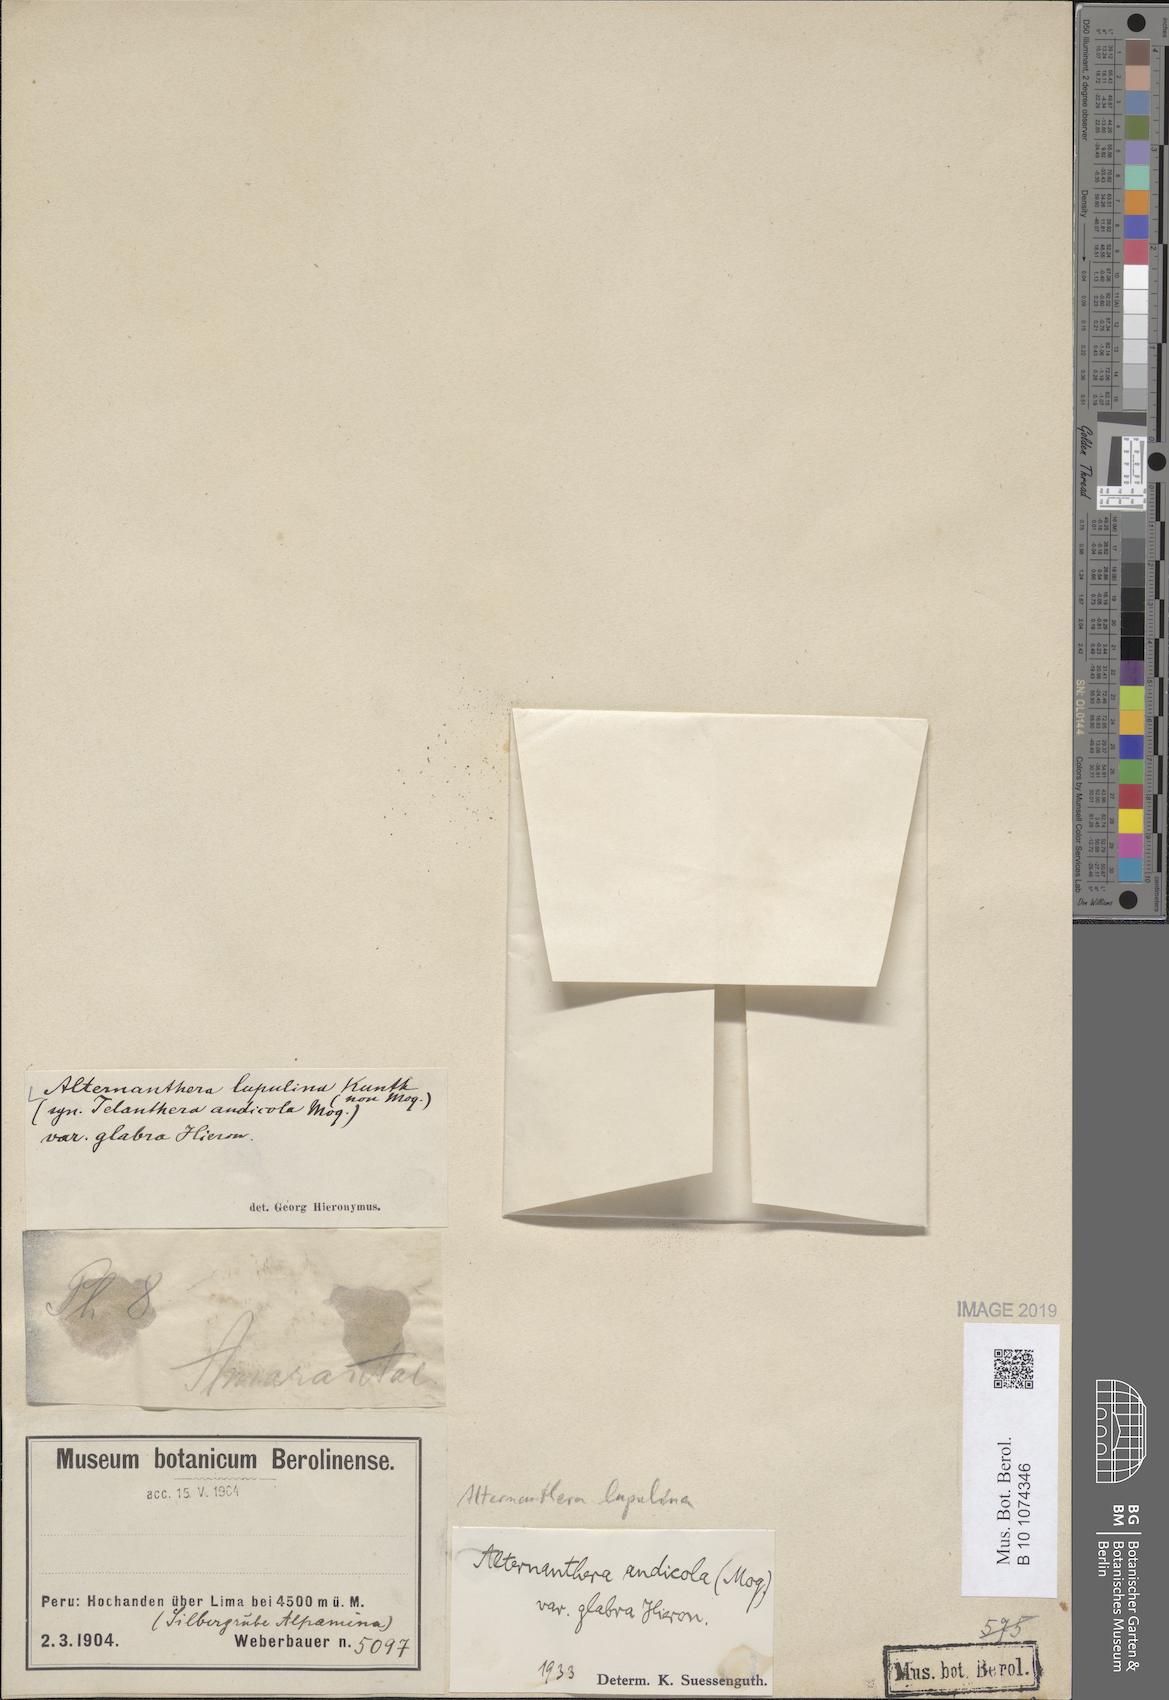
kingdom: Plantae
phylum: Tracheophyta
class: Magnoliopsida
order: Caryophyllales
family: Amaranthaceae
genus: Alternanthera
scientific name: Alternanthera lupulina
